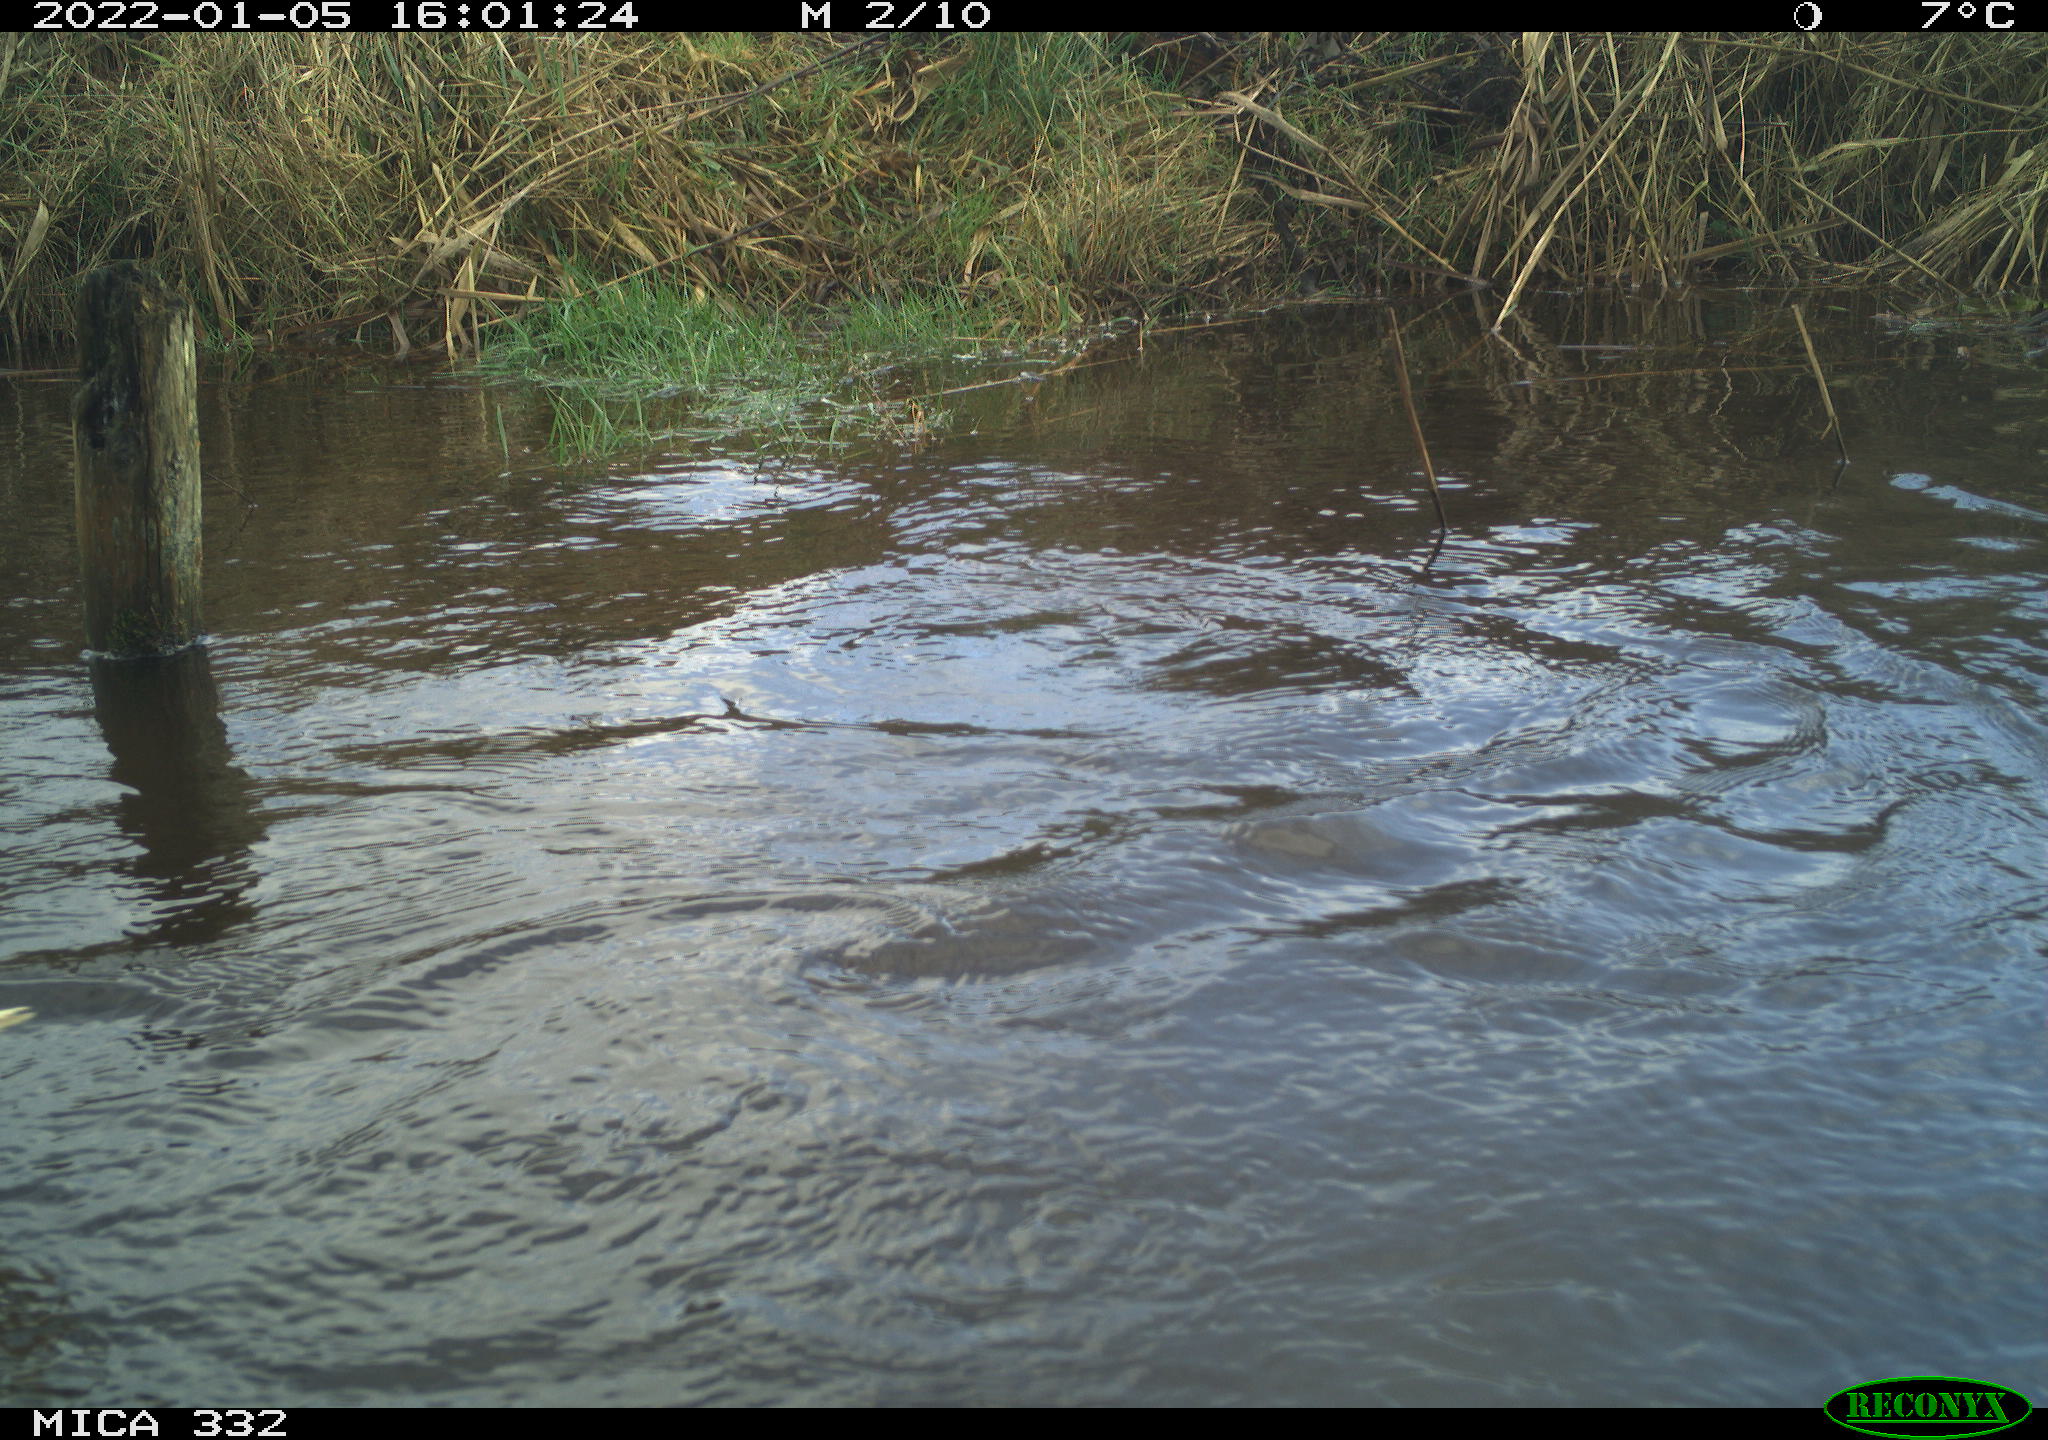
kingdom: Animalia
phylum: Chordata
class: Aves
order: Anseriformes
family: Anatidae
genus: Cygnus
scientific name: Cygnus olor
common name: Mute swan
